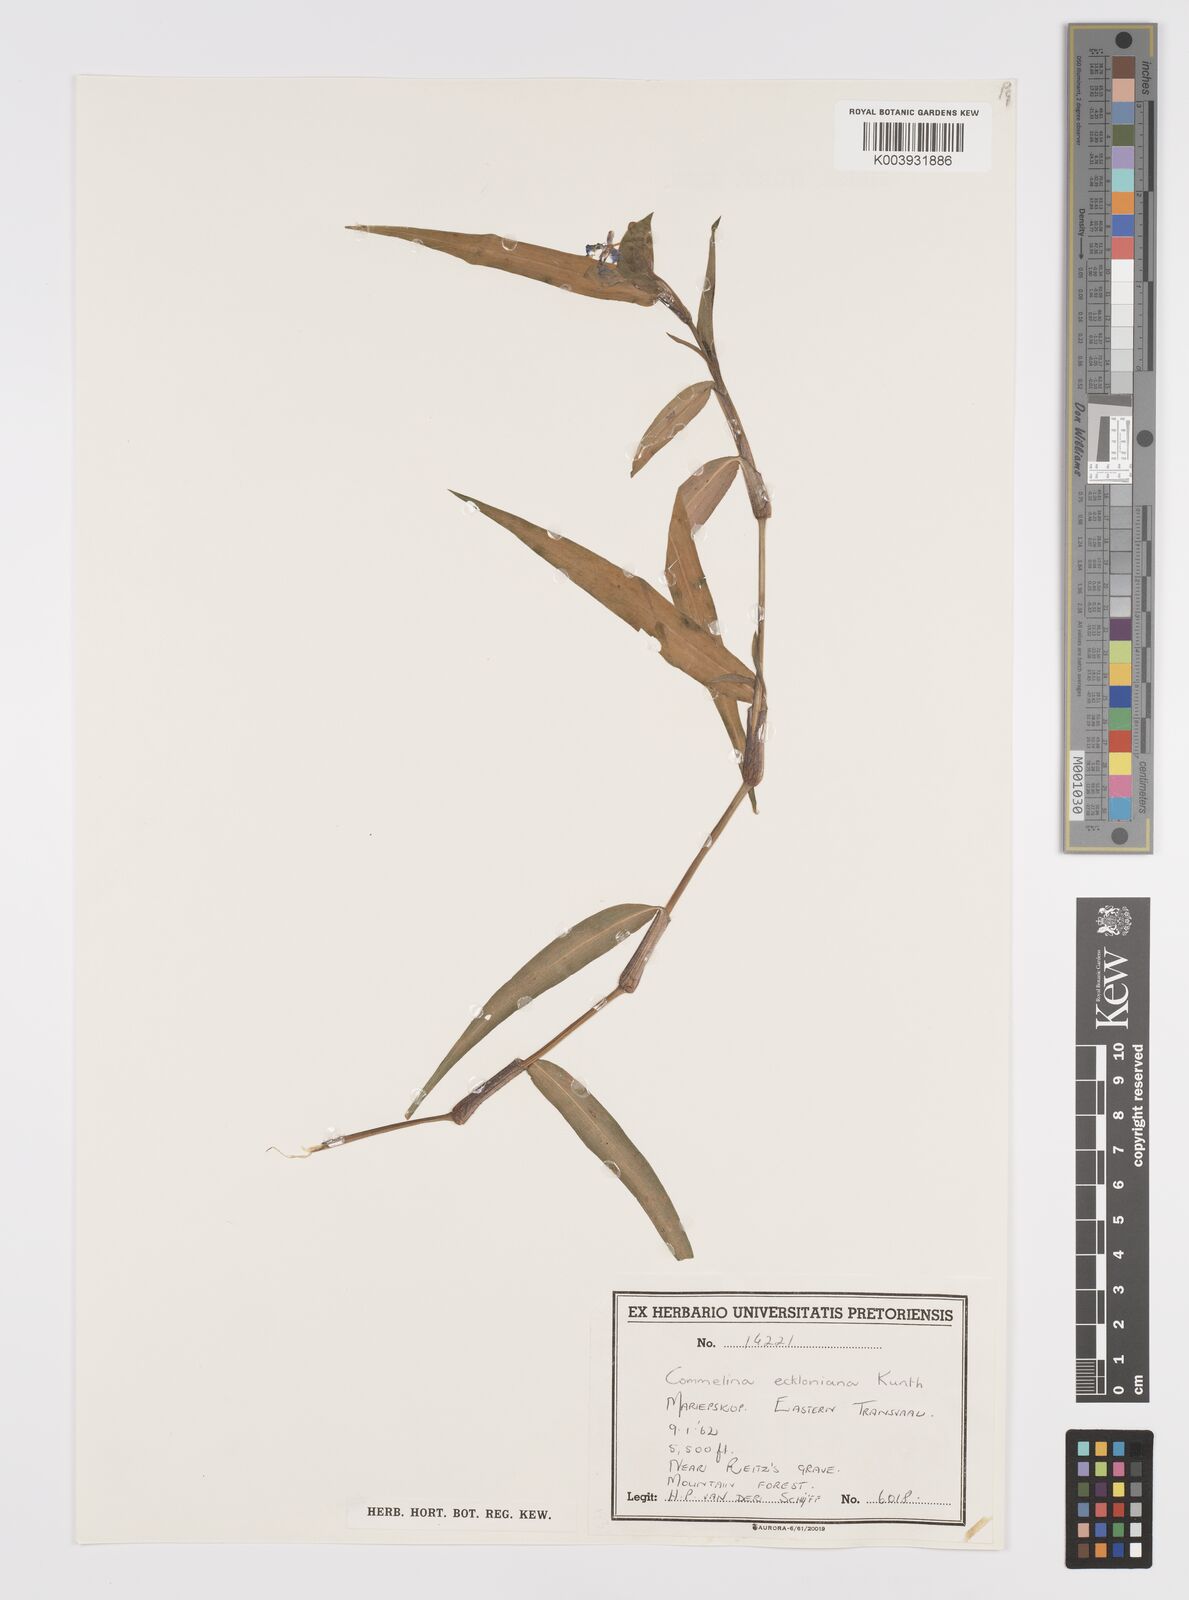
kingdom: Plantae
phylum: Tracheophyta
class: Liliopsida
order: Commelinales
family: Commelinaceae
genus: Commelina
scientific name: Commelina eckloniana
